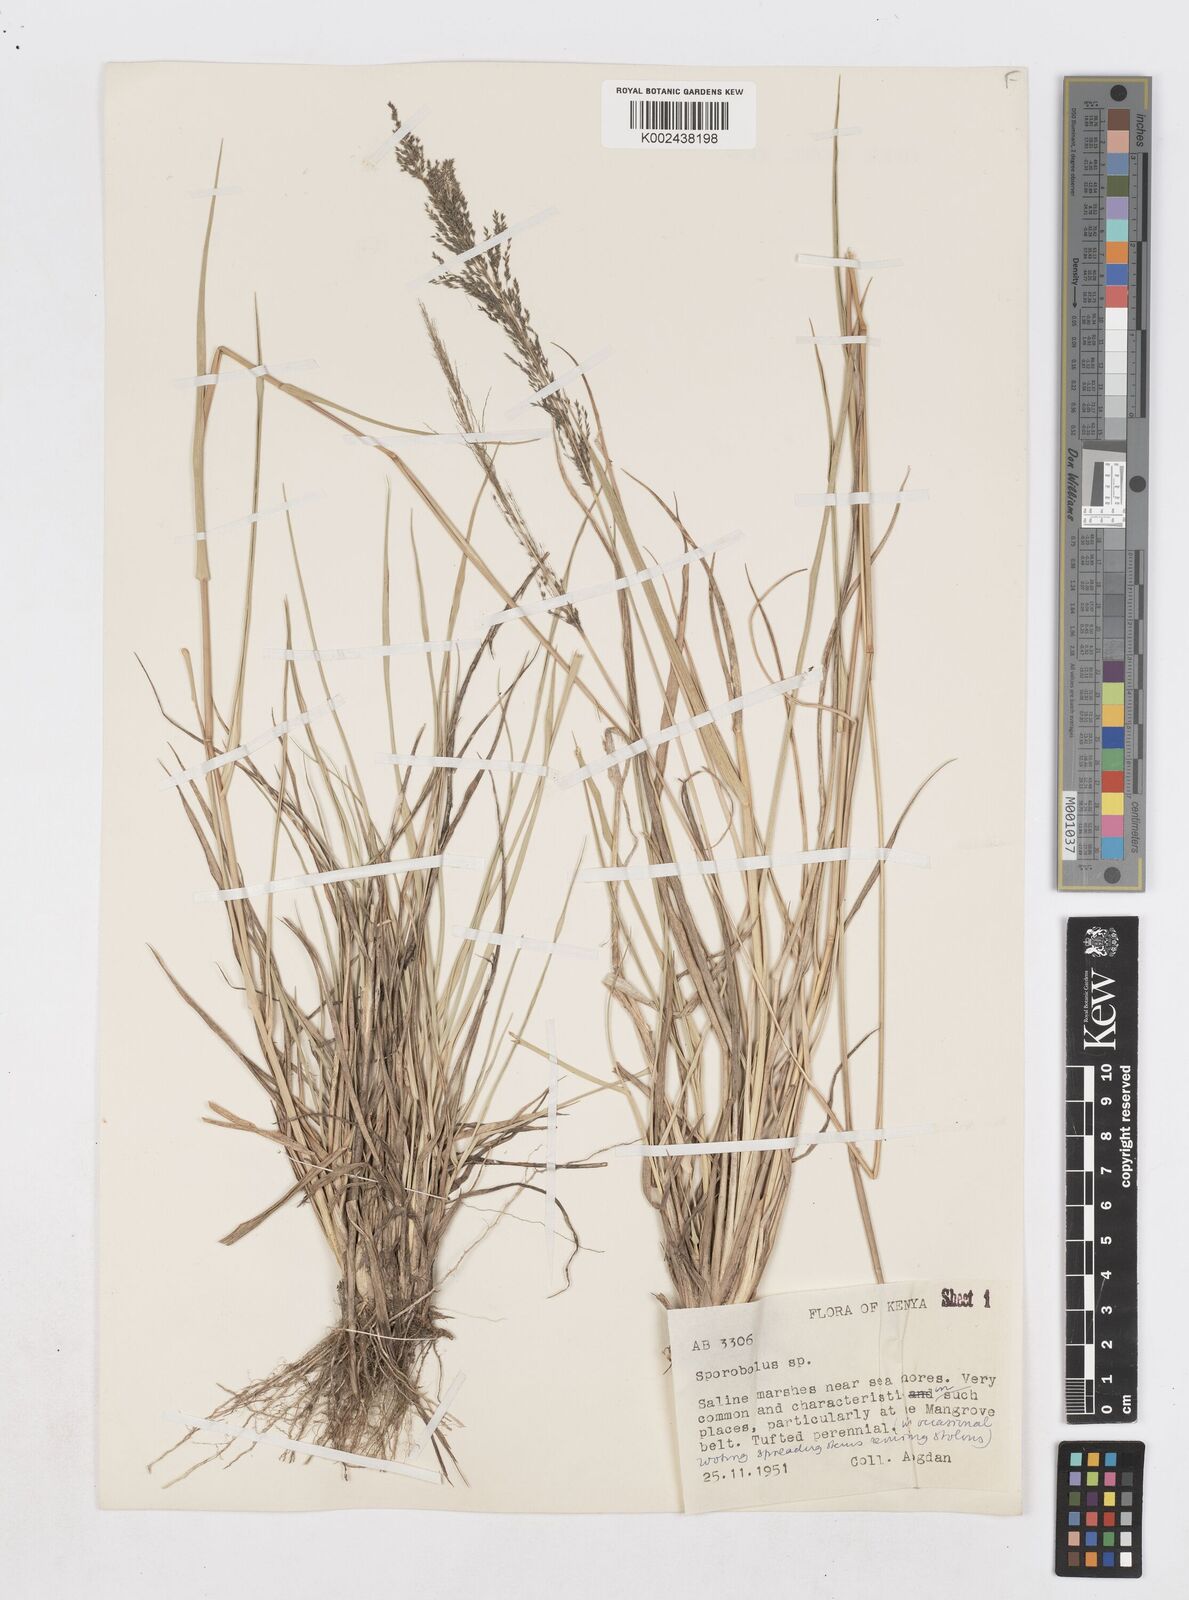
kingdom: Plantae
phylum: Tracheophyta
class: Liliopsida
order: Poales
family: Poaceae
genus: Sporobolus
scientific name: Sporobolus ioclados
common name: Pan dropseed
